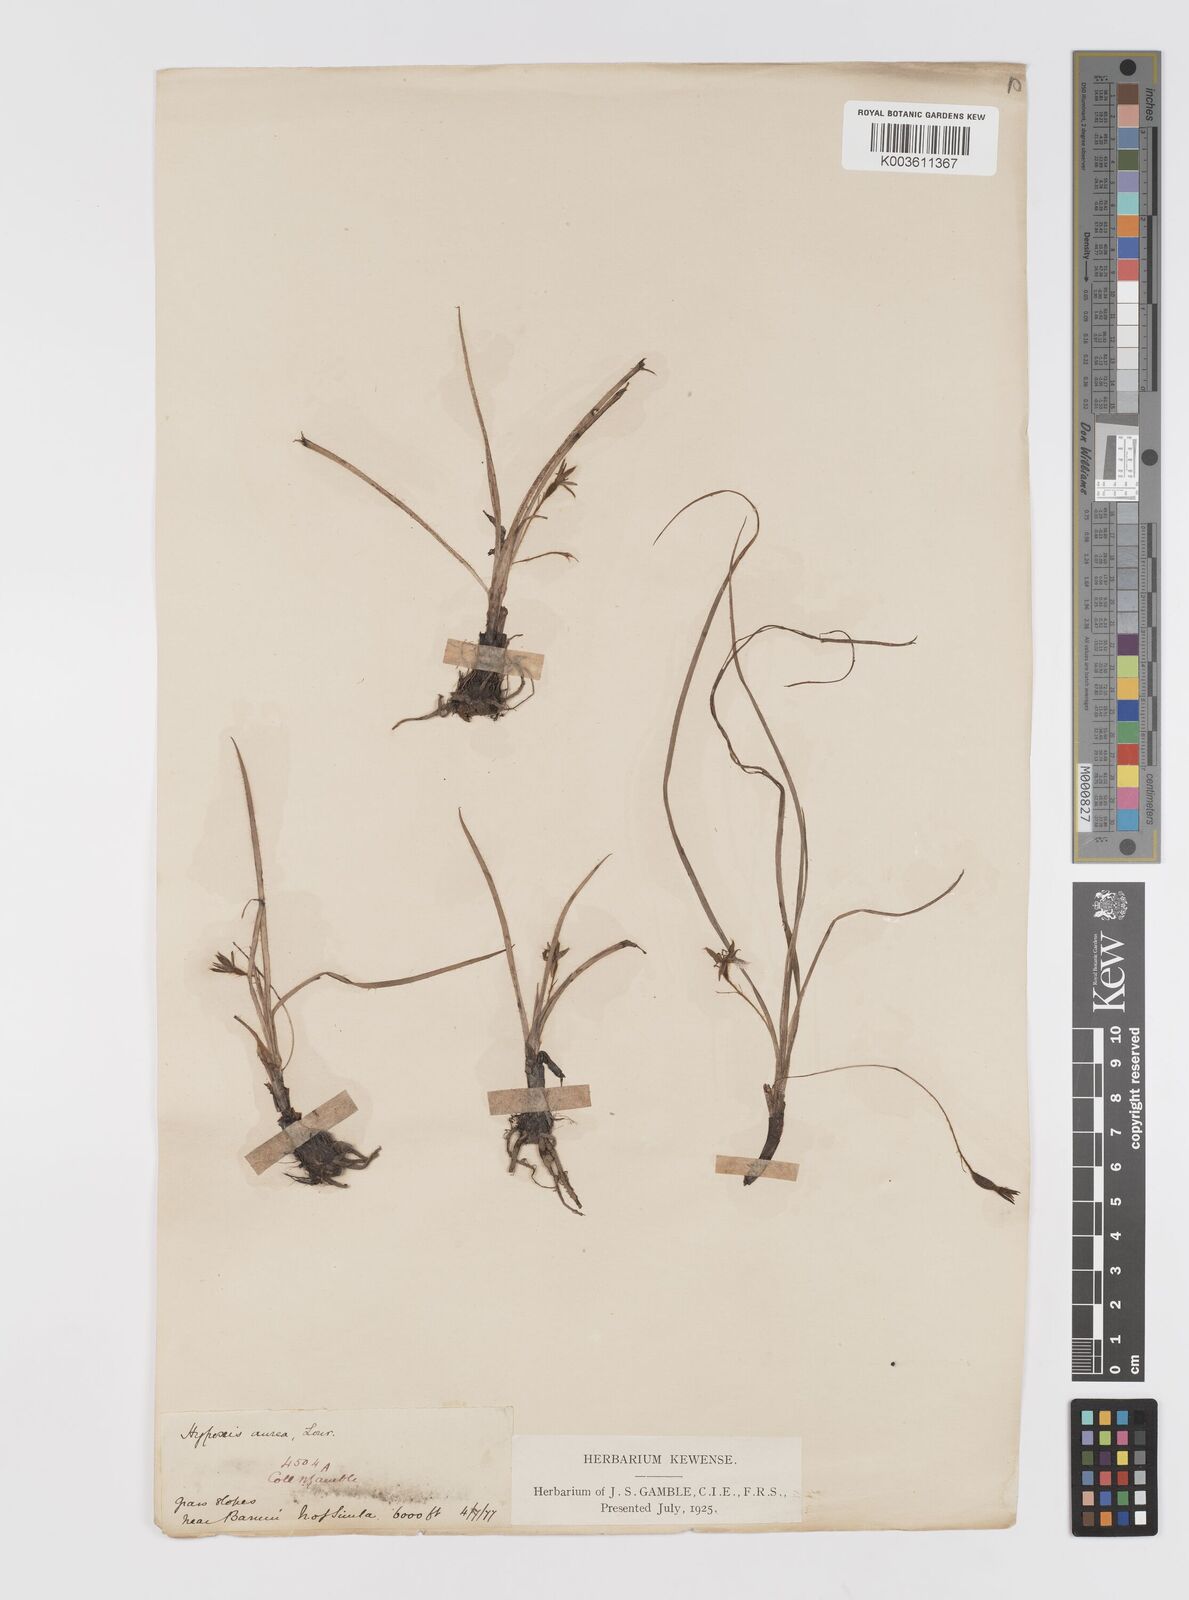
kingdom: Plantae
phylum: Tracheophyta
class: Liliopsida
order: Asparagales
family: Hypoxidaceae
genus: Hypoxis
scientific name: Hypoxis aurea
